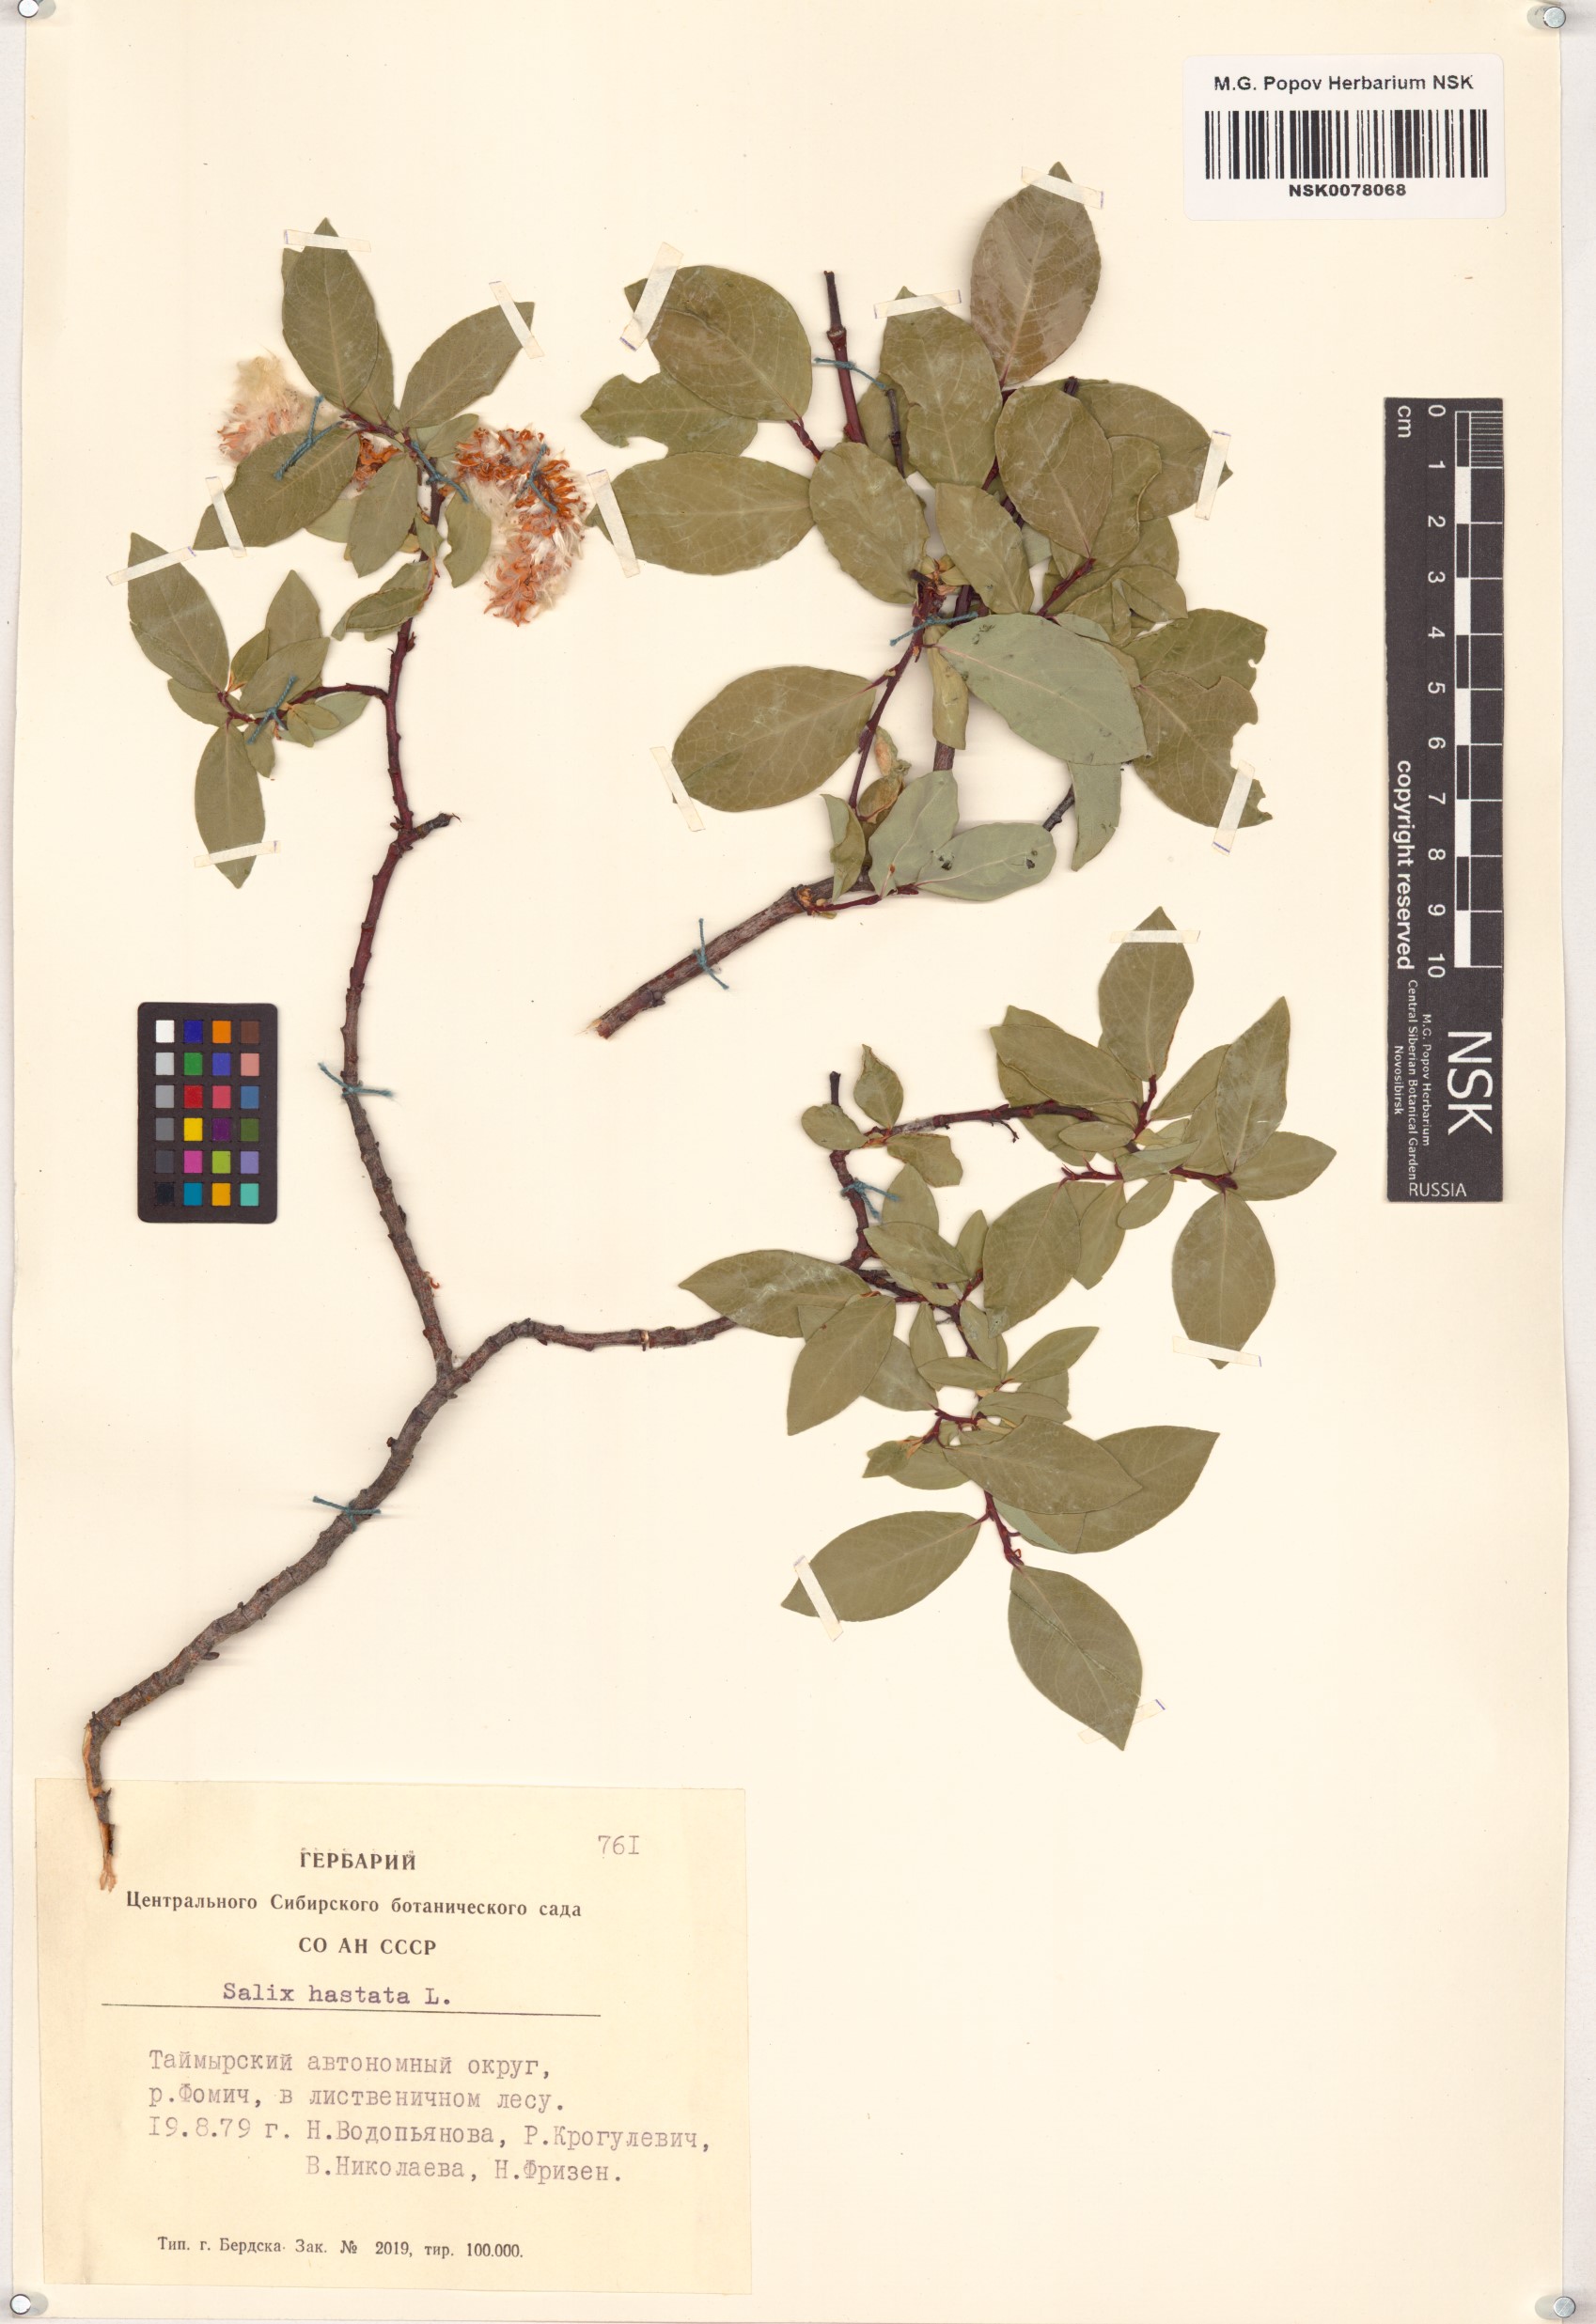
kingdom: Plantae
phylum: Tracheophyta
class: Magnoliopsida
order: Malpighiales
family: Salicaceae
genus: Salix
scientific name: Salix hastata
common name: Halberd willow
